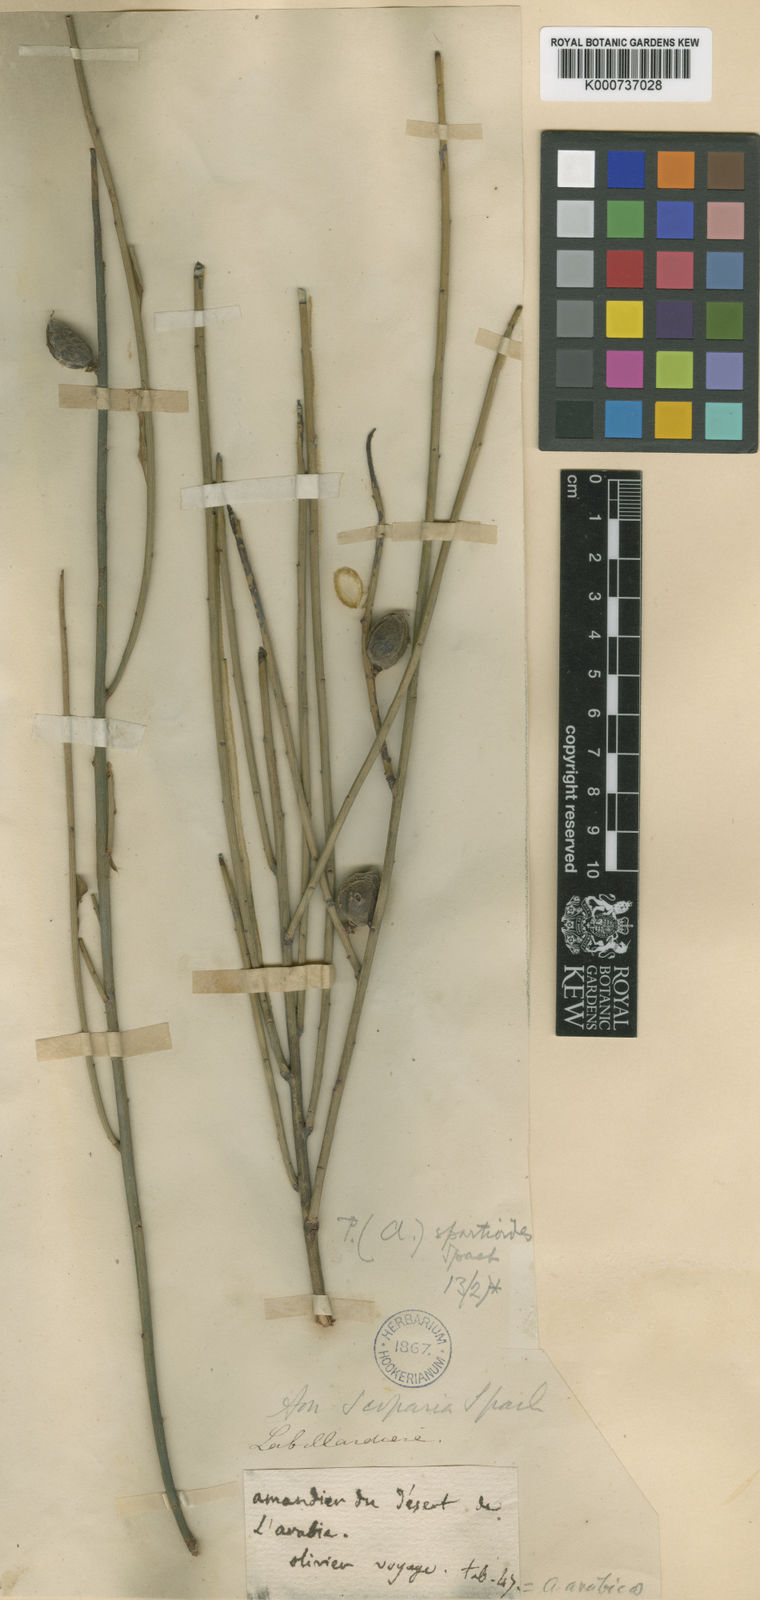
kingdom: Plantae
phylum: Tracheophyta
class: Magnoliopsida
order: Rosales
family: Rosaceae
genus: Prunus
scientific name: Prunus arabica
